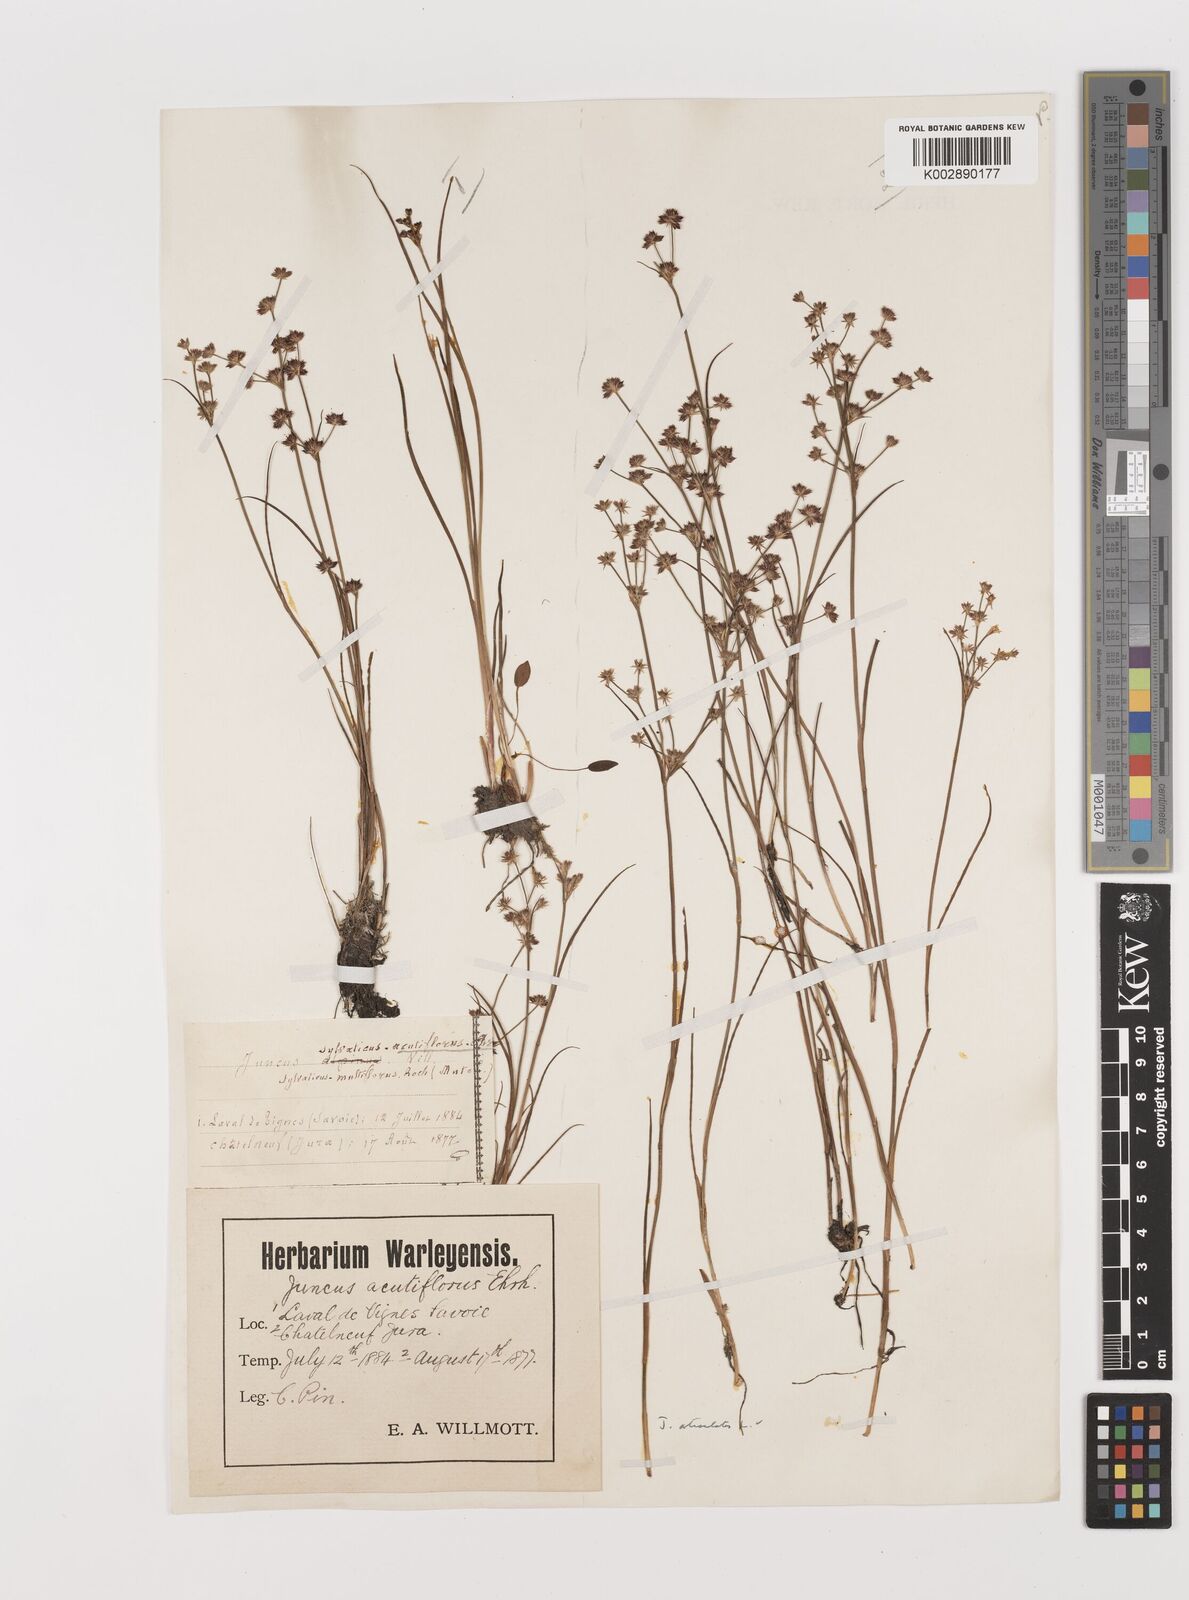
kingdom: Plantae
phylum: Tracheophyta
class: Liliopsida
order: Poales
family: Juncaceae
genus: Juncus
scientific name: Juncus articulatus
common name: Jointed rush
